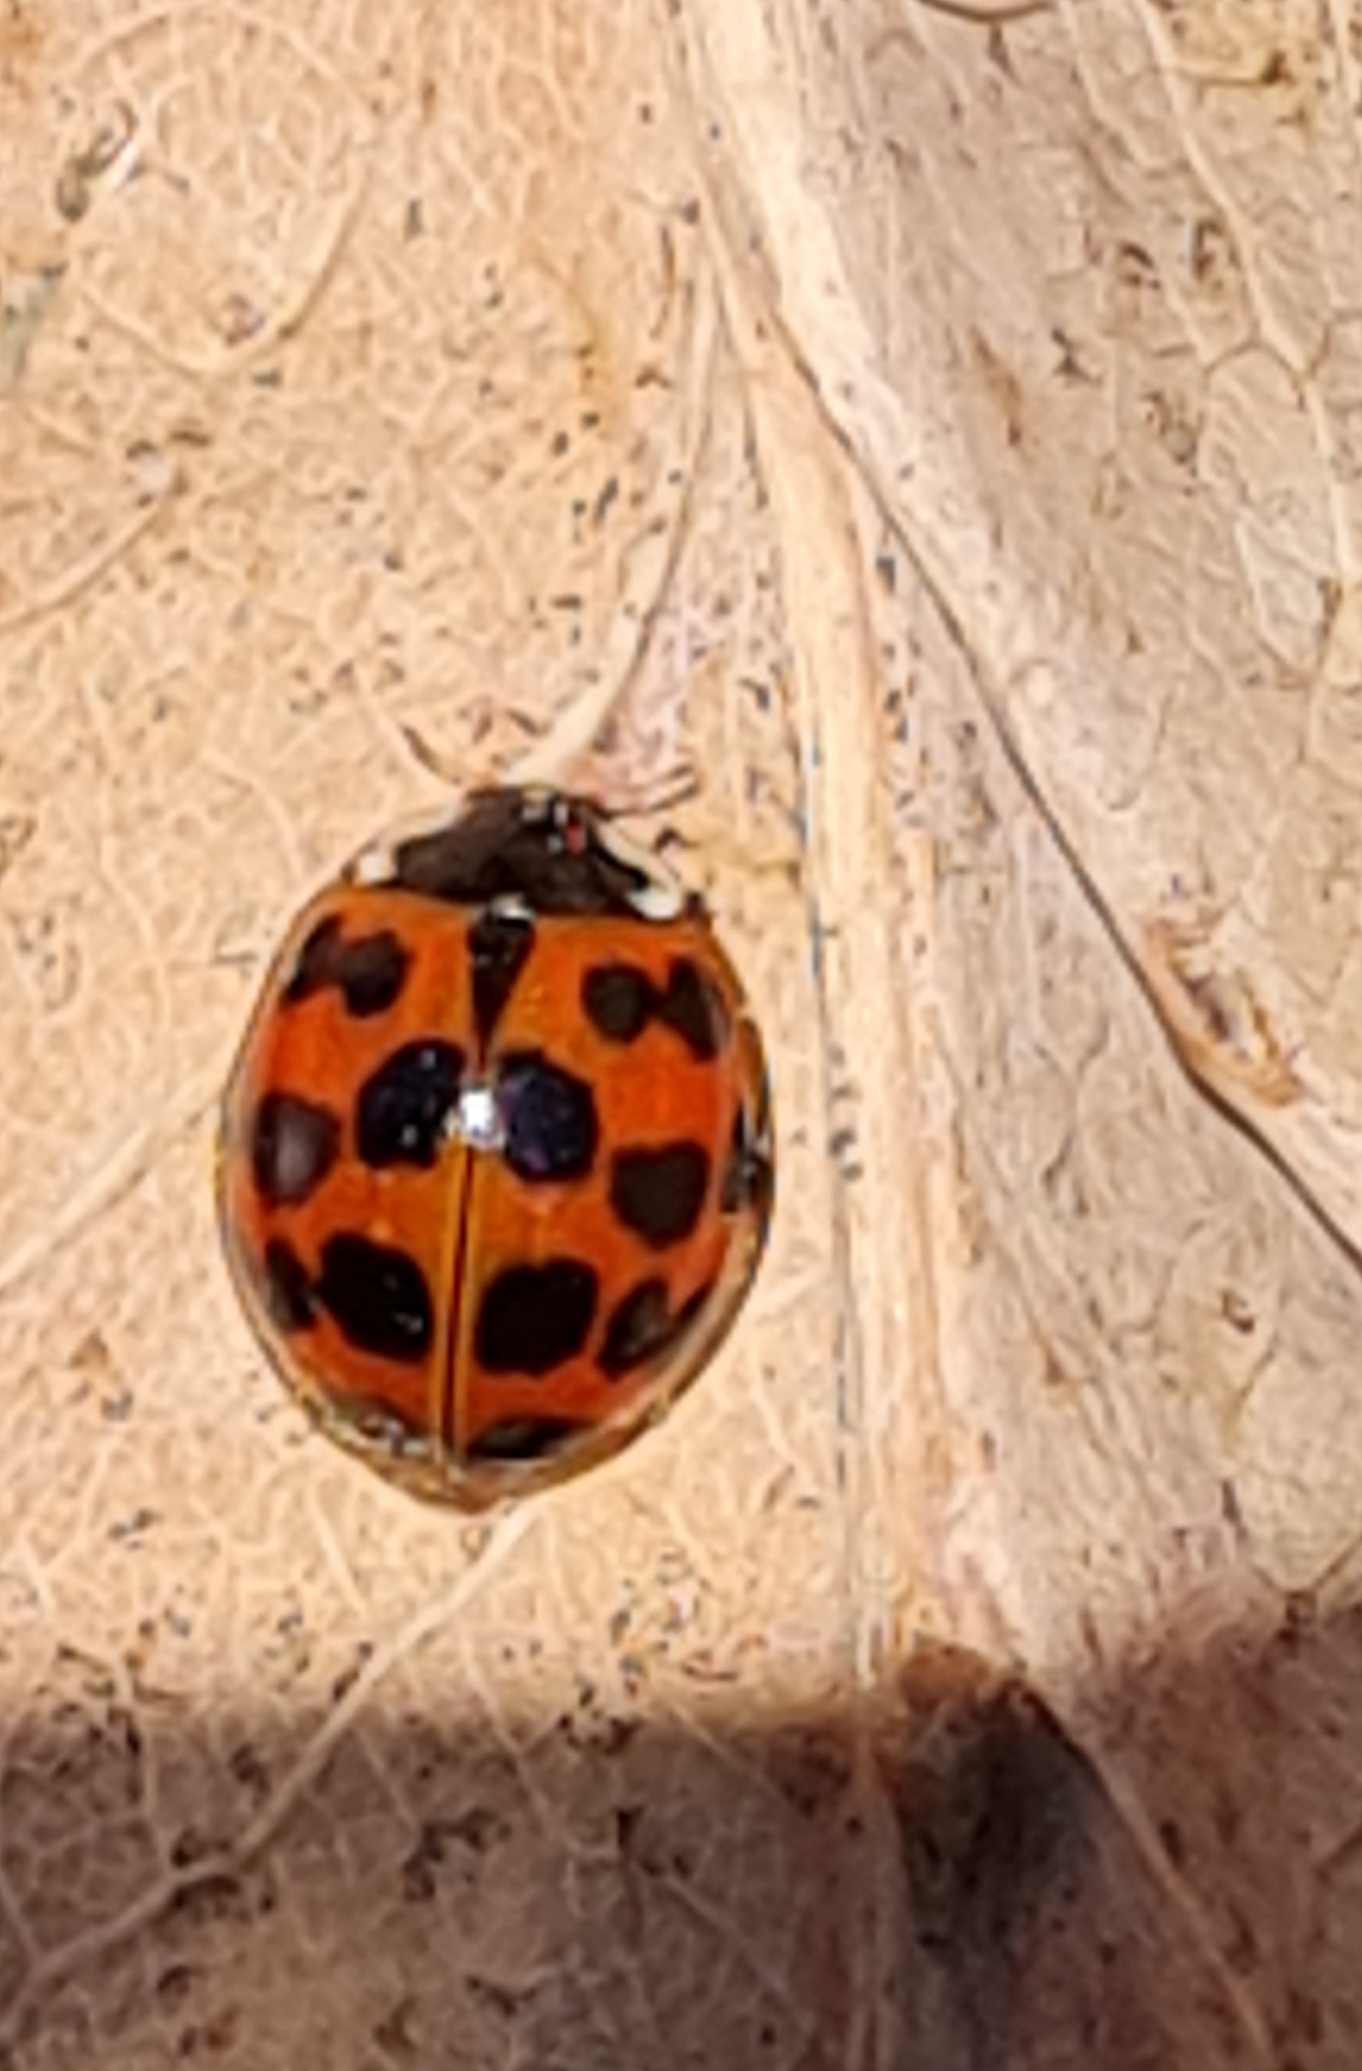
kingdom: Animalia
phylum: Arthropoda
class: Insecta
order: Coleoptera
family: Coccinellidae
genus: Harmonia
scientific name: Harmonia axyridis
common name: Harlekinmariehøne
